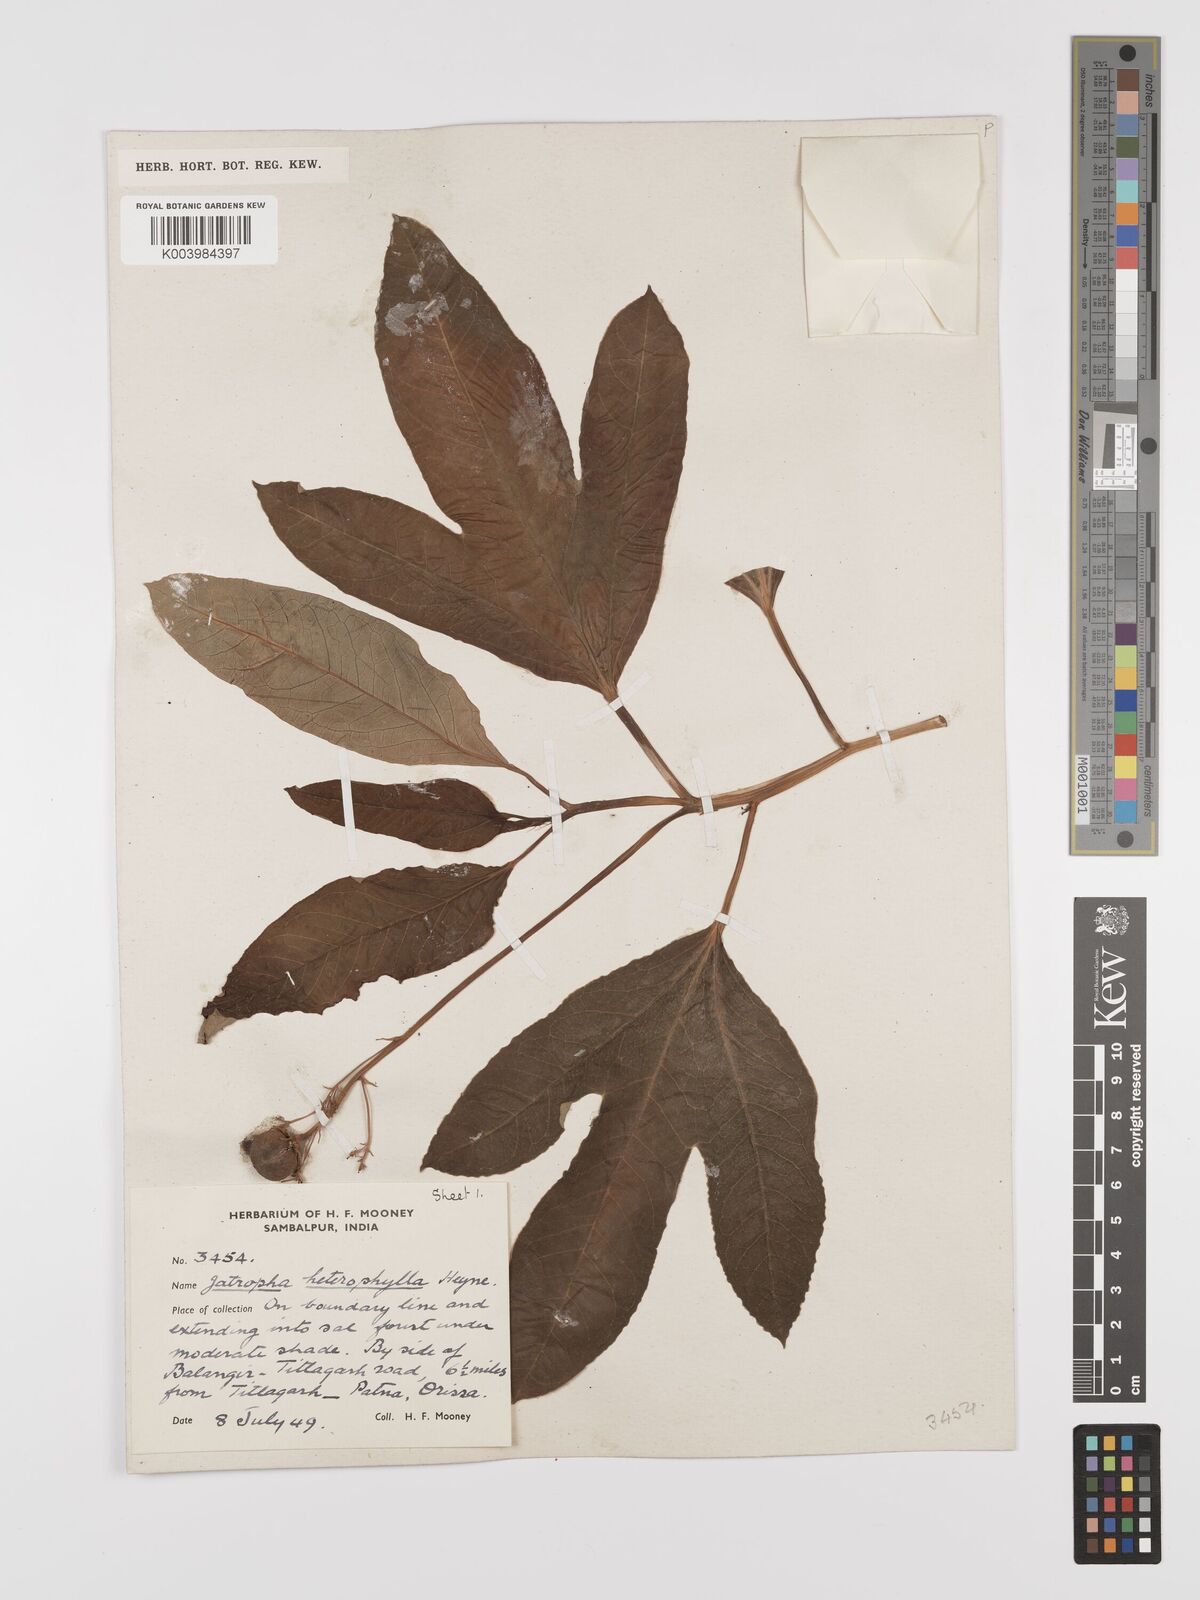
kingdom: Plantae
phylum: Tracheophyta
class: Magnoliopsida
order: Malpighiales
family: Euphorbiaceae
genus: Jatropha
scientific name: Jatropha
